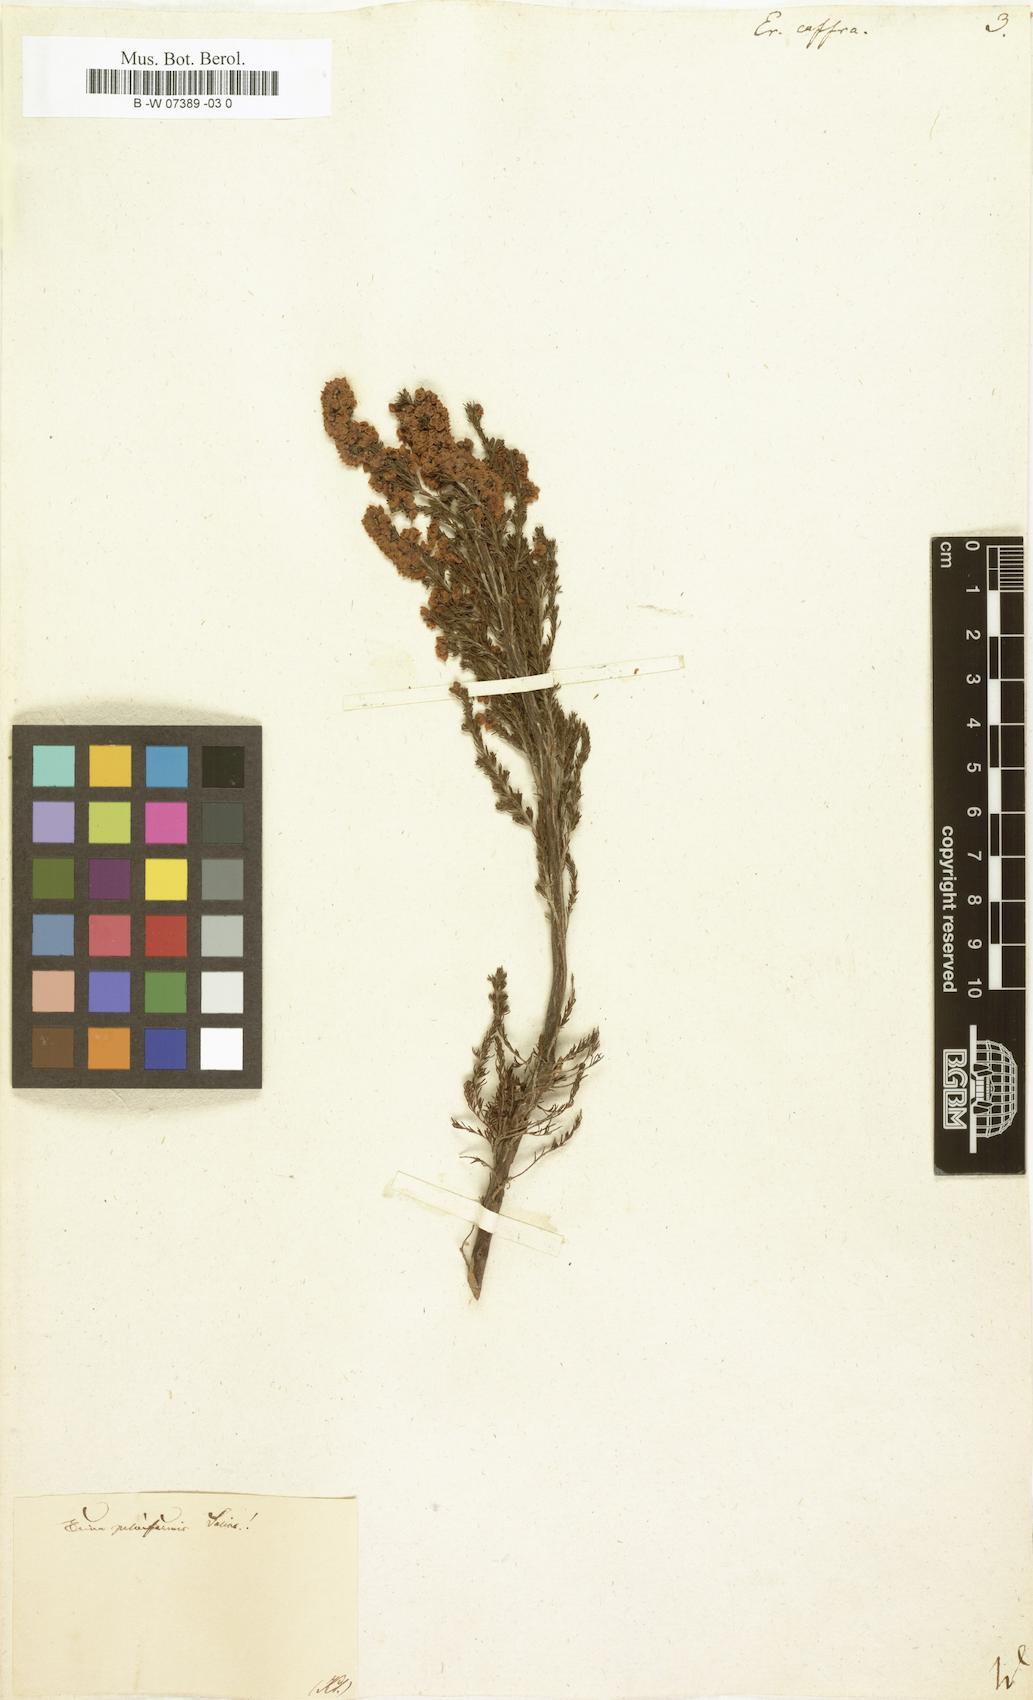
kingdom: Plantae
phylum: Tracheophyta
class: Magnoliopsida
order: Ericales
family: Ericaceae
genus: Erica
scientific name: Erica caffra
